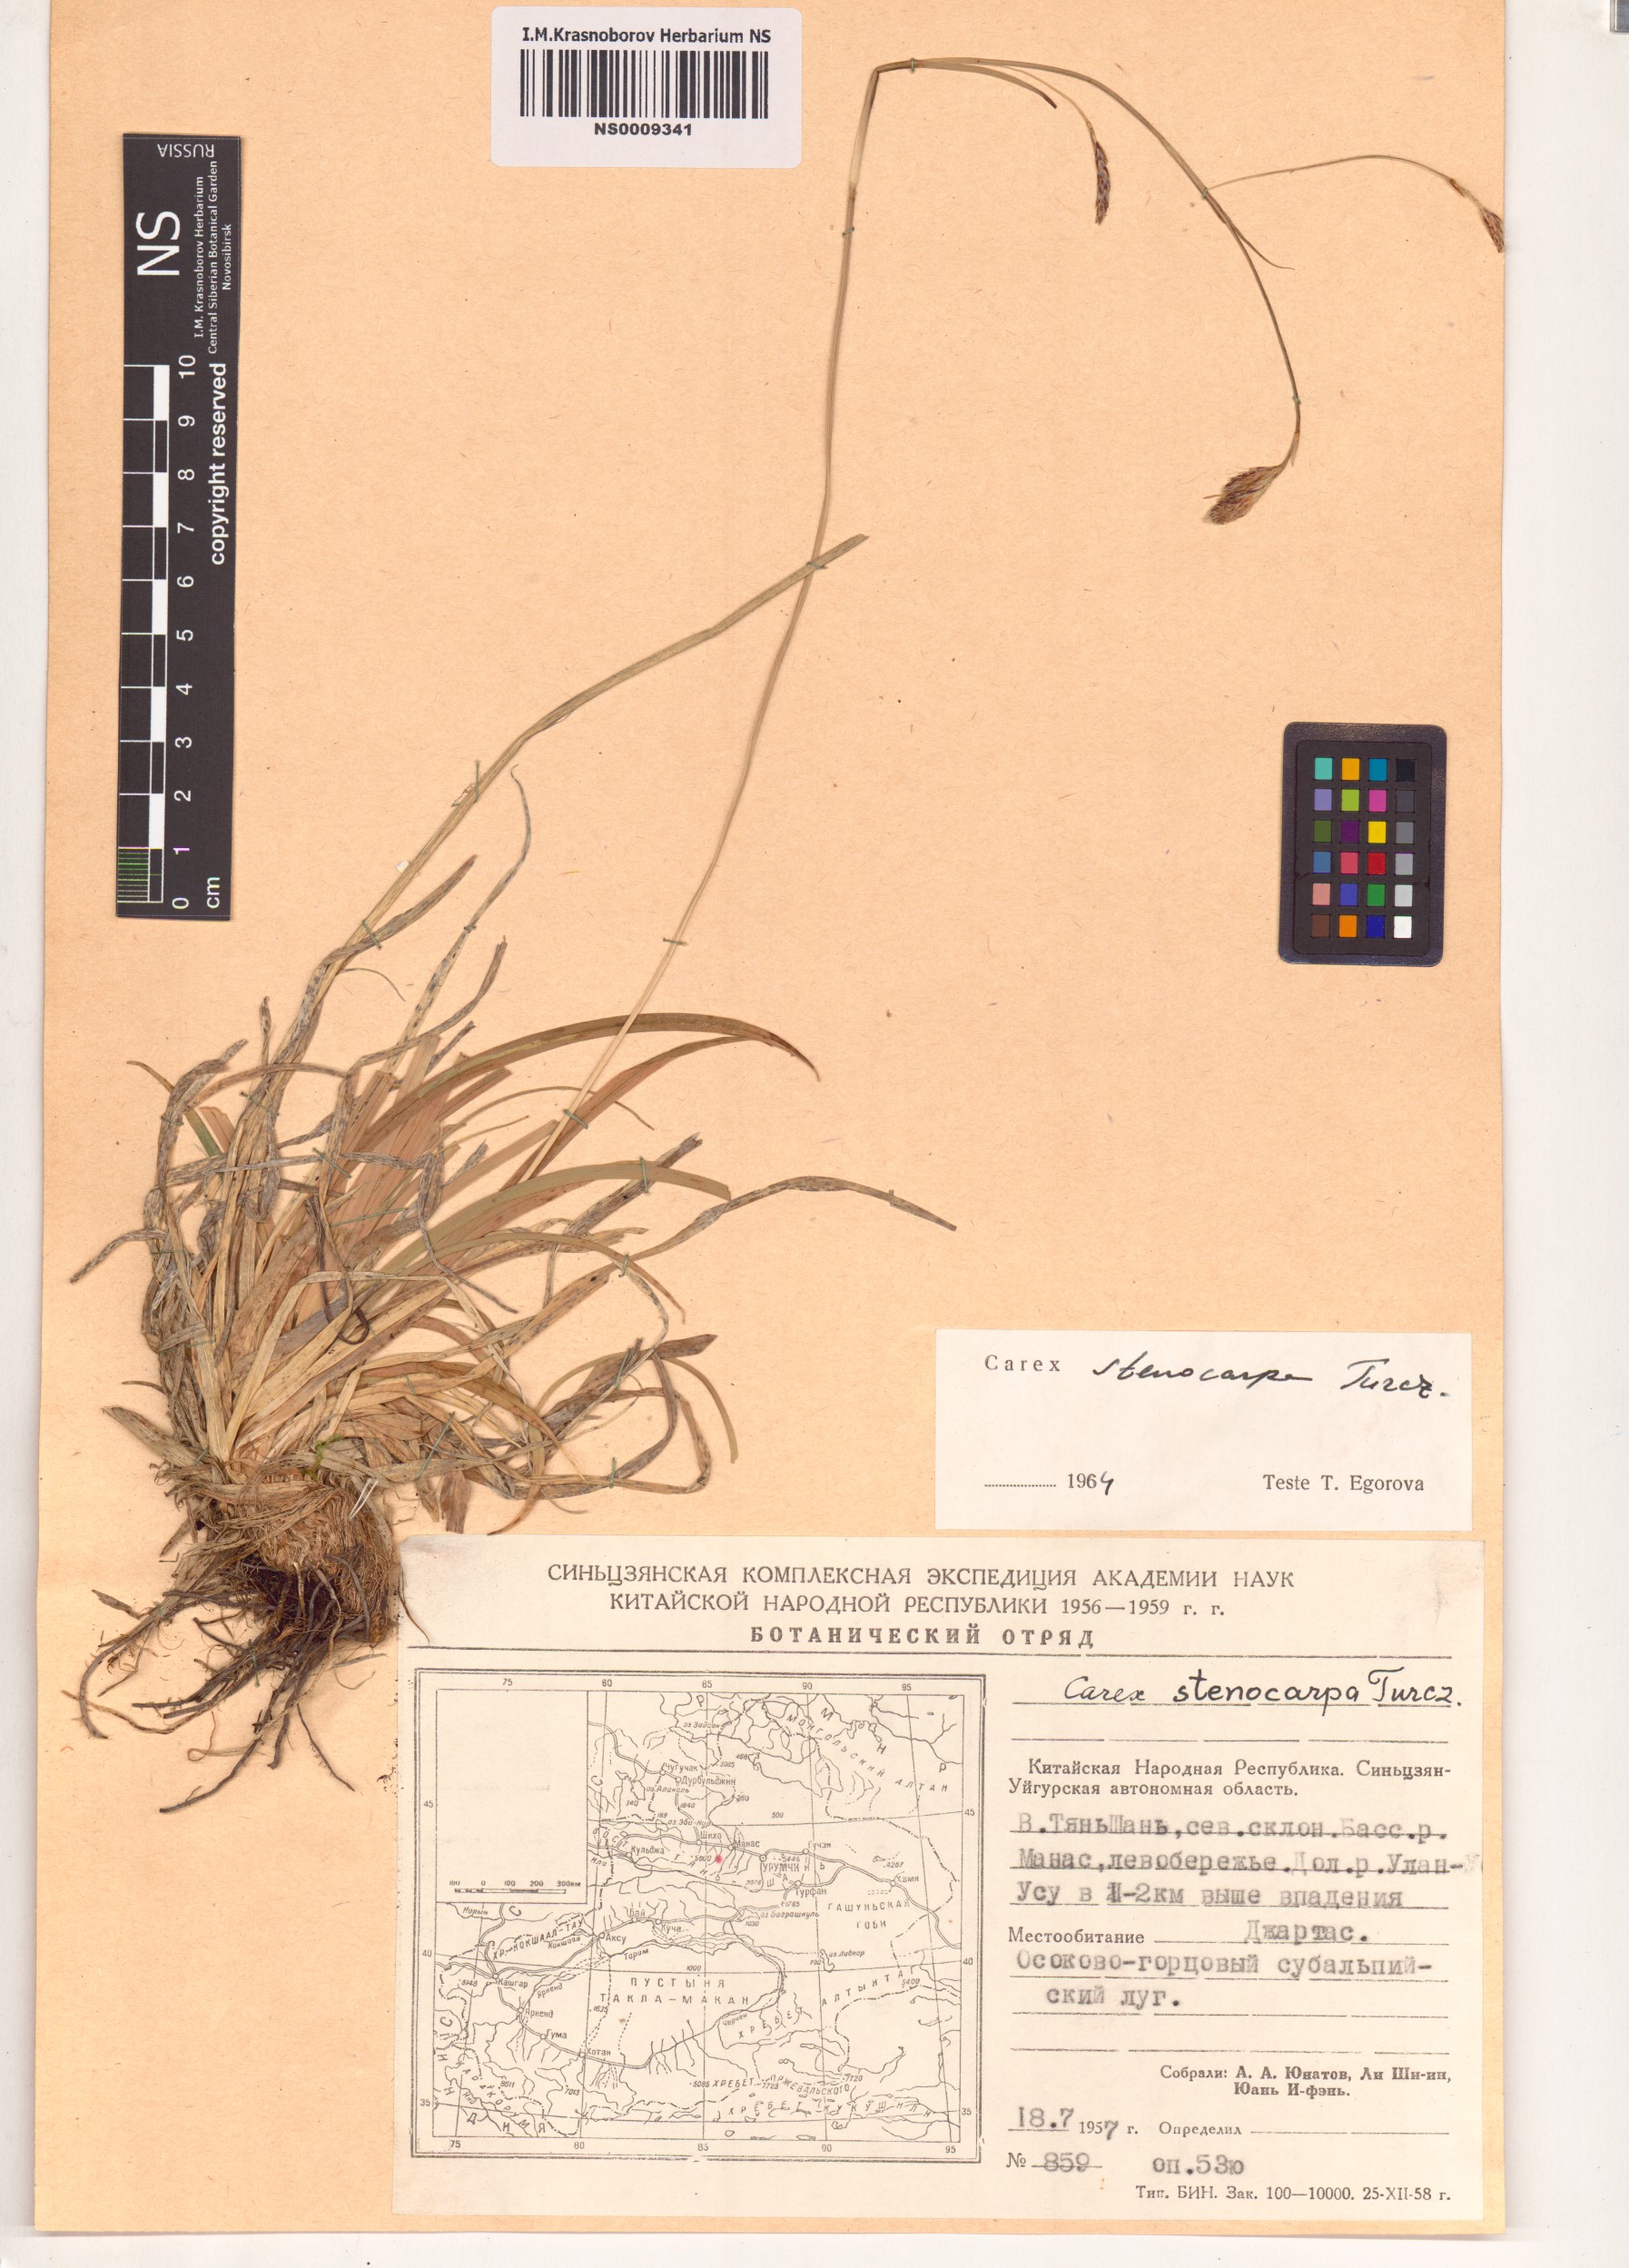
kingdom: Plantae
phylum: Tracheophyta
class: Liliopsida
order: Poales
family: Cyperaceae
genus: Carex
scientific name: Carex stenocarpa
